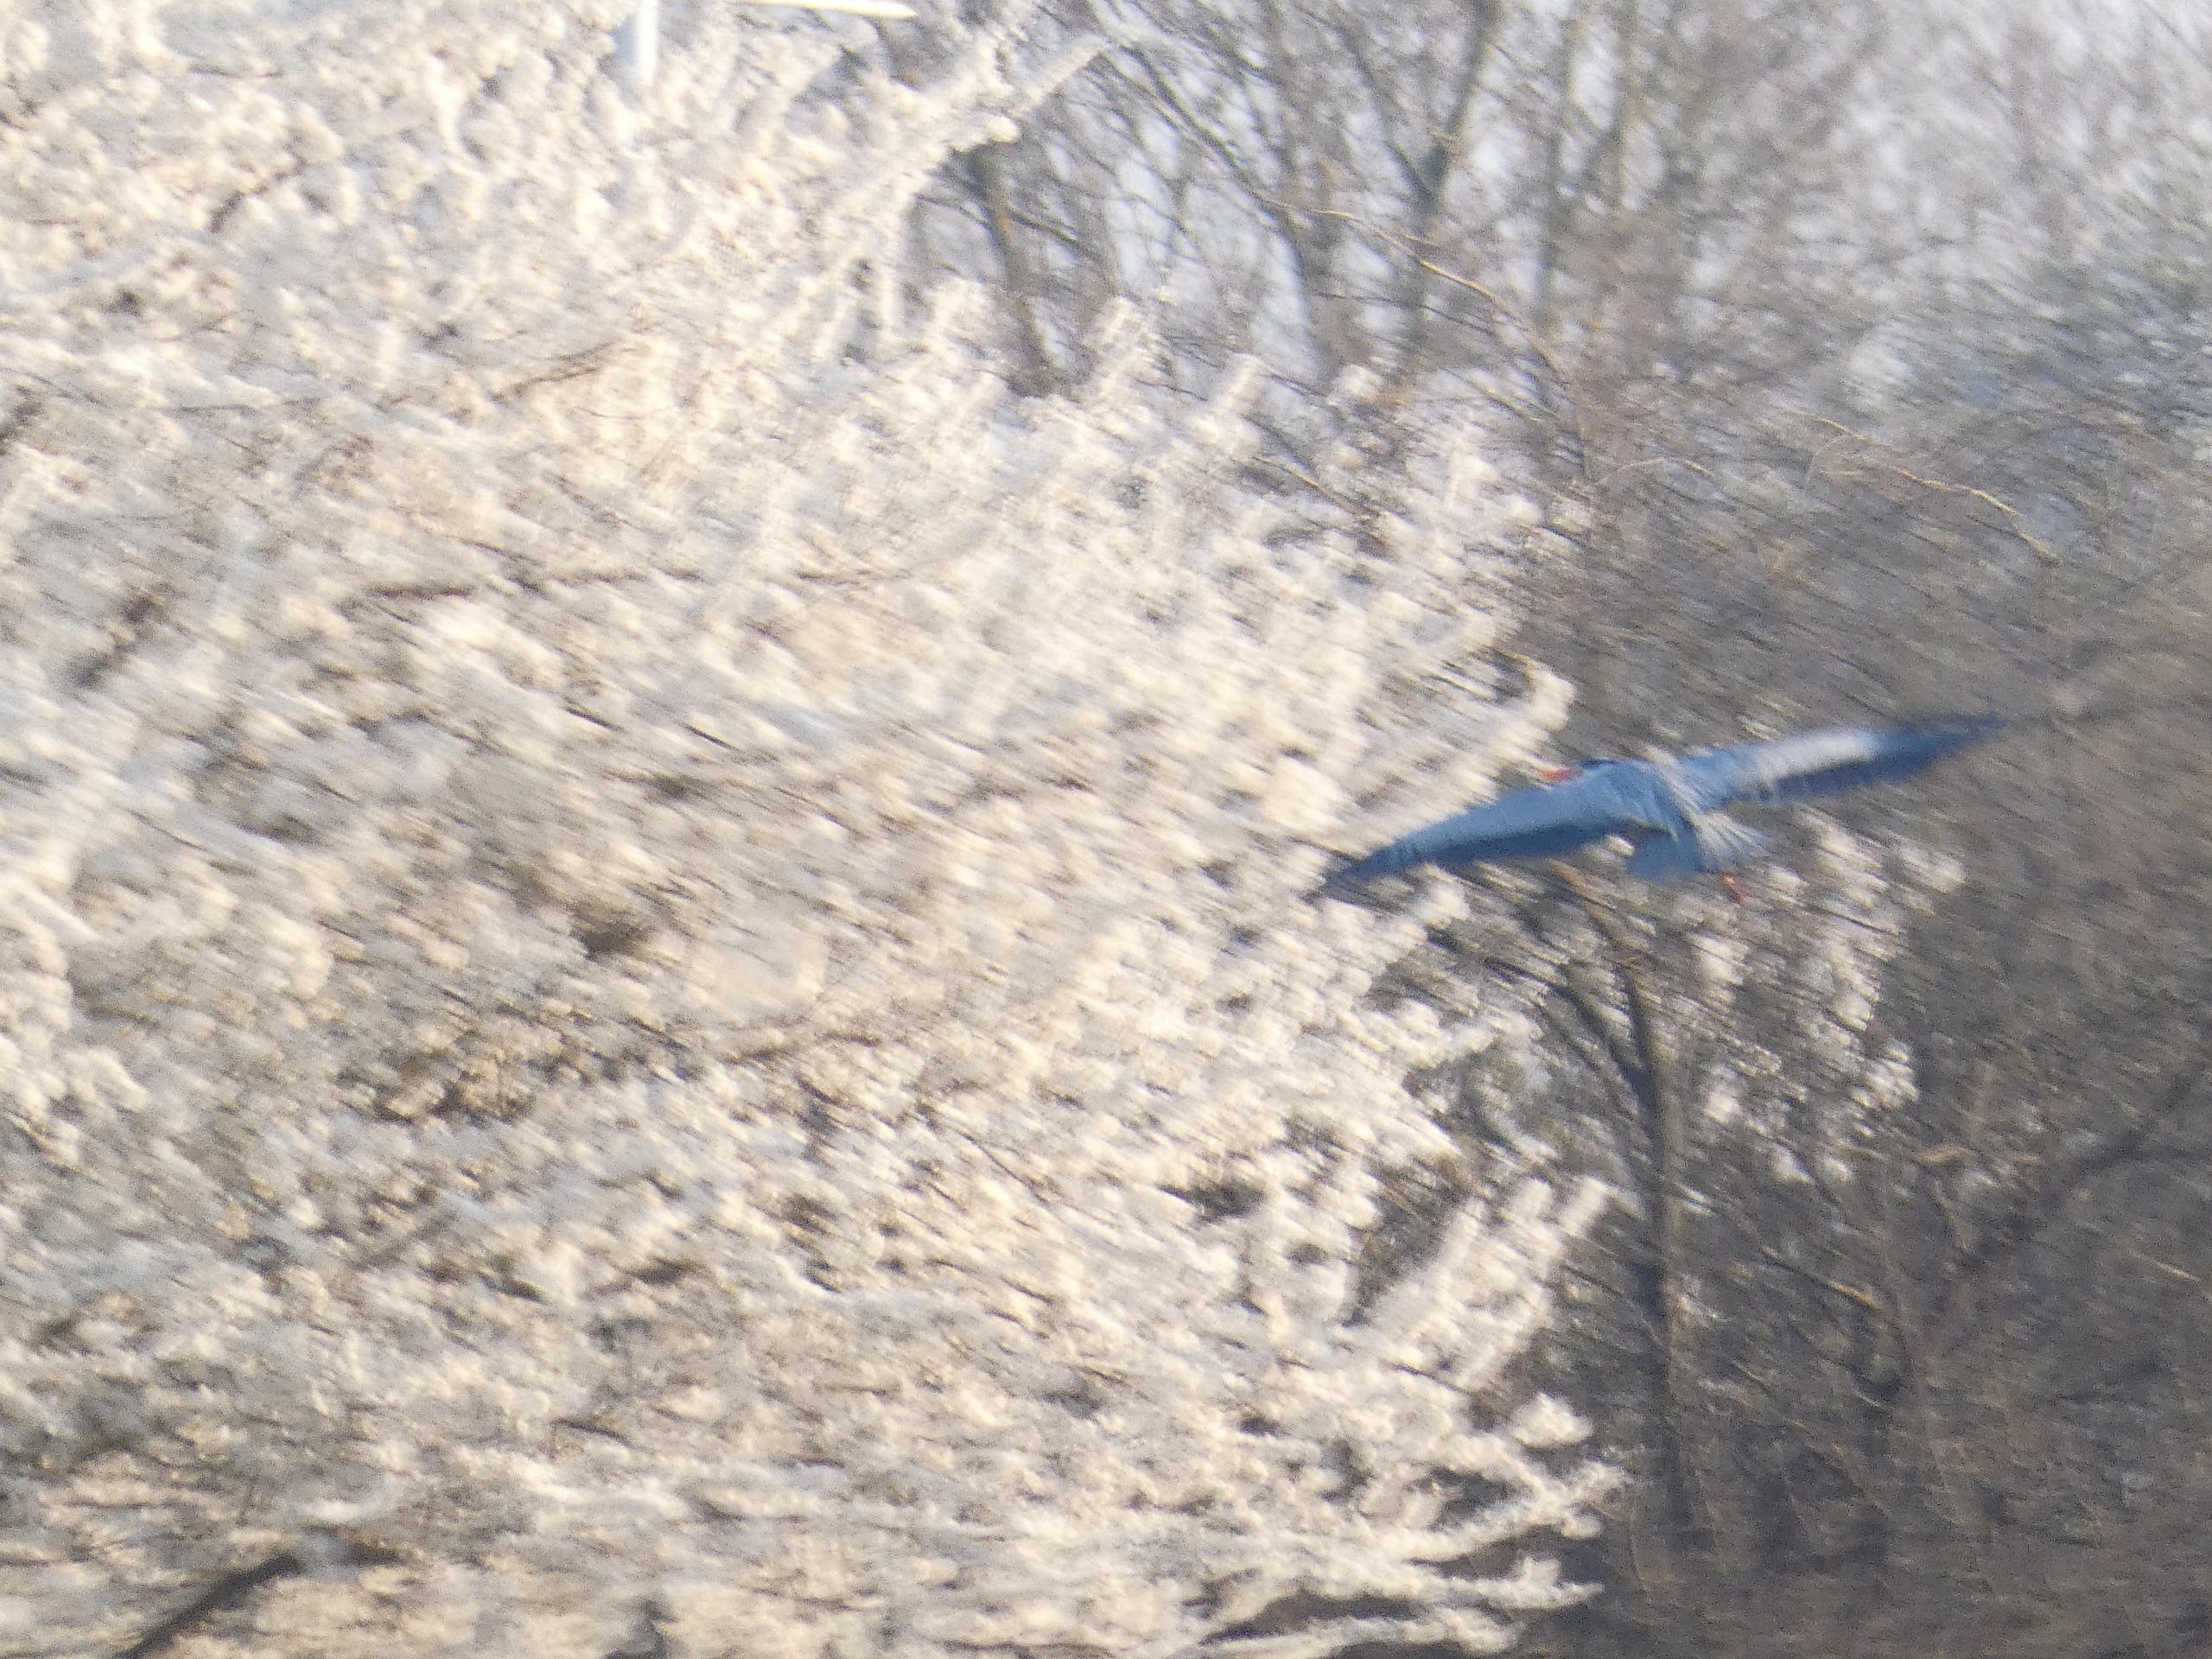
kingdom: Animalia
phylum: Chordata
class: Aves
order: Pelecaniformes
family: Ardeidae
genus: Ardea
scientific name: Ardea cinerea
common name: Fiskehejre
